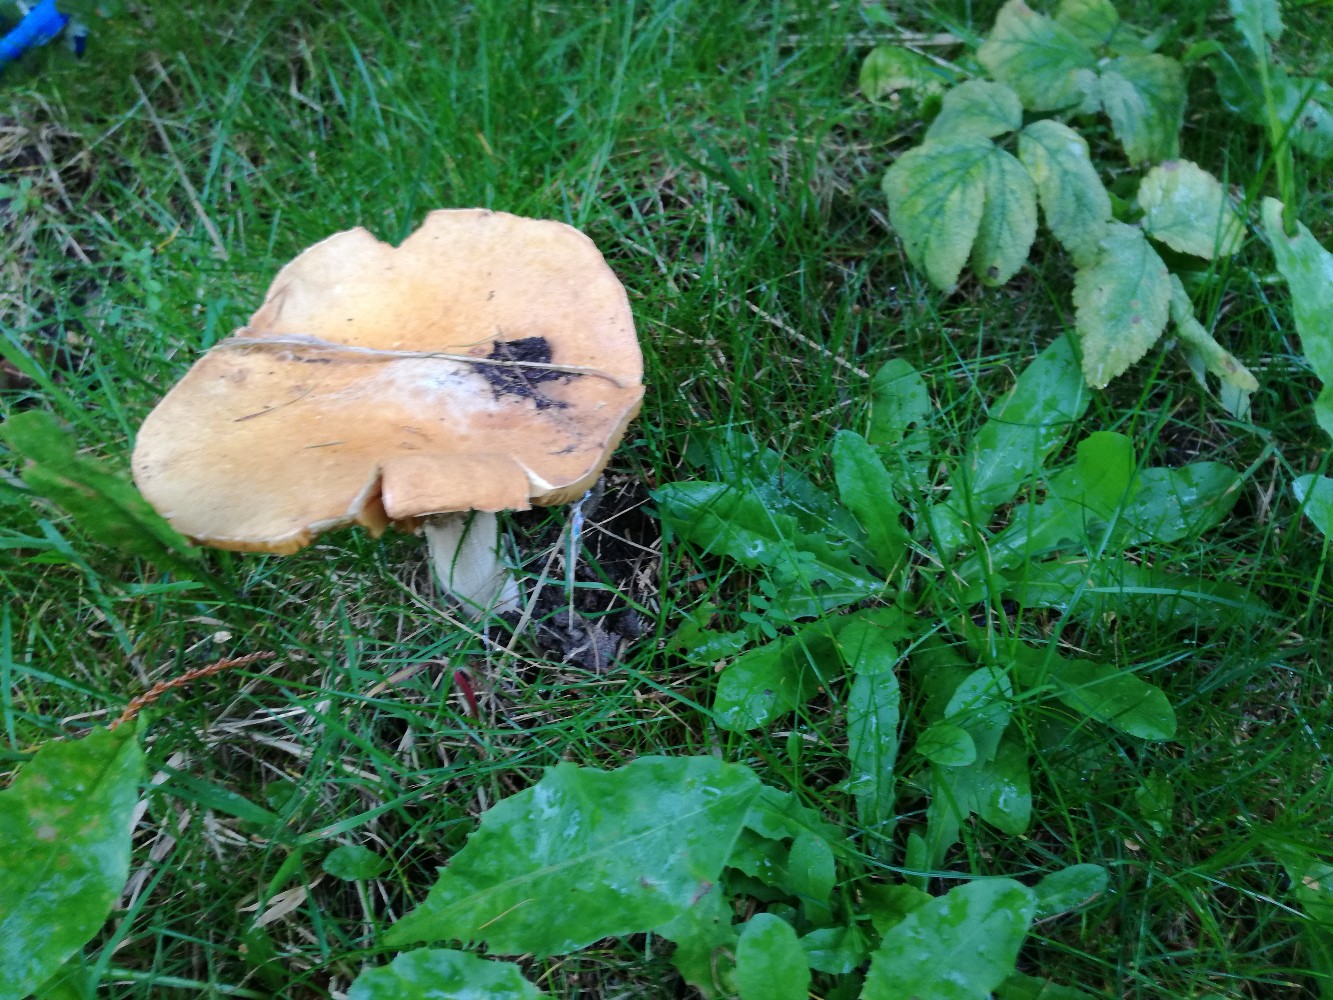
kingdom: Fungi
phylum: Basidiomycota
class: Agaricomycetes
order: Agaricales
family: Tricholomataceae
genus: Phaeolepiota
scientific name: Phaeolepiota aurea
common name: gyldenhat
